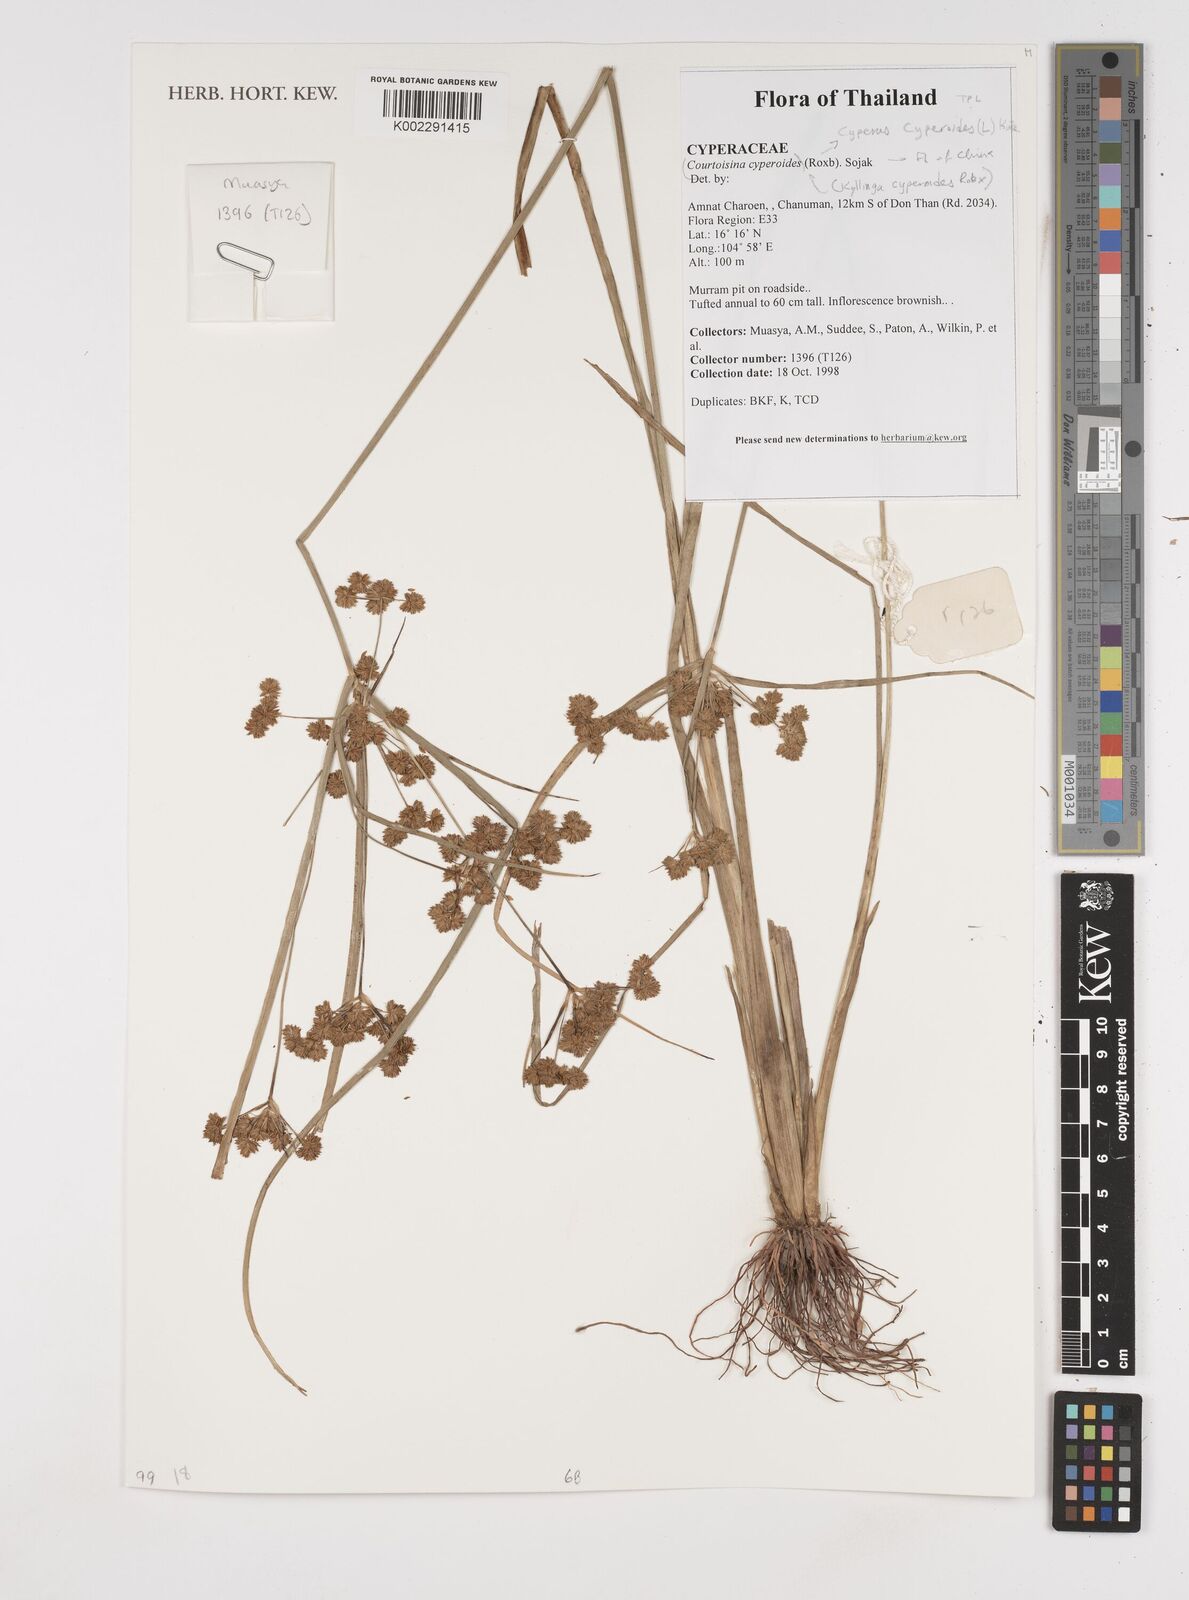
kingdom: Plantae
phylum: Tracheophyta
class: Liliopsida
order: Poales
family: Cyperaceae
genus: Cyperus
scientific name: Cyperus cyperoides
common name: Pacific island flat sedge
